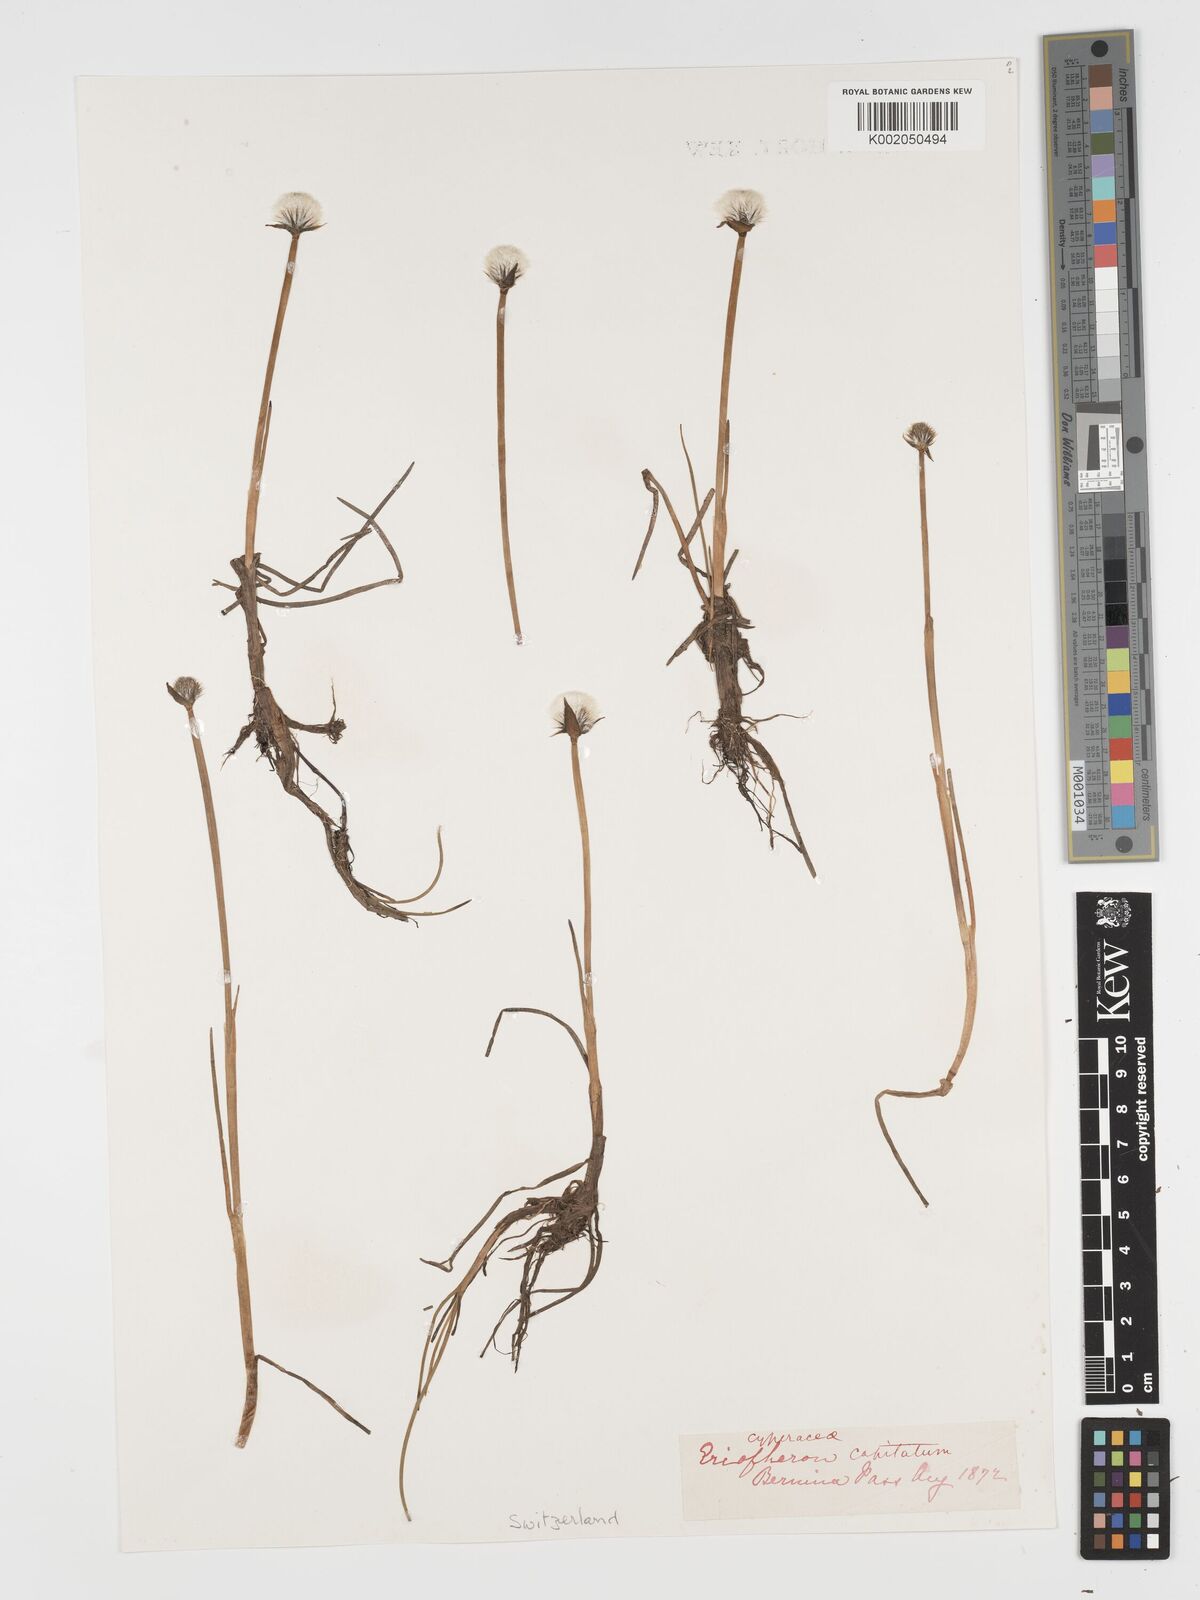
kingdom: Plantae
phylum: Tracheophyta
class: Liliopsida
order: Poales
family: Cyperaceae
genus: Eriophorum
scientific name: Eriophorum scheuchzeri
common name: Scheuchzer's cottongrass
